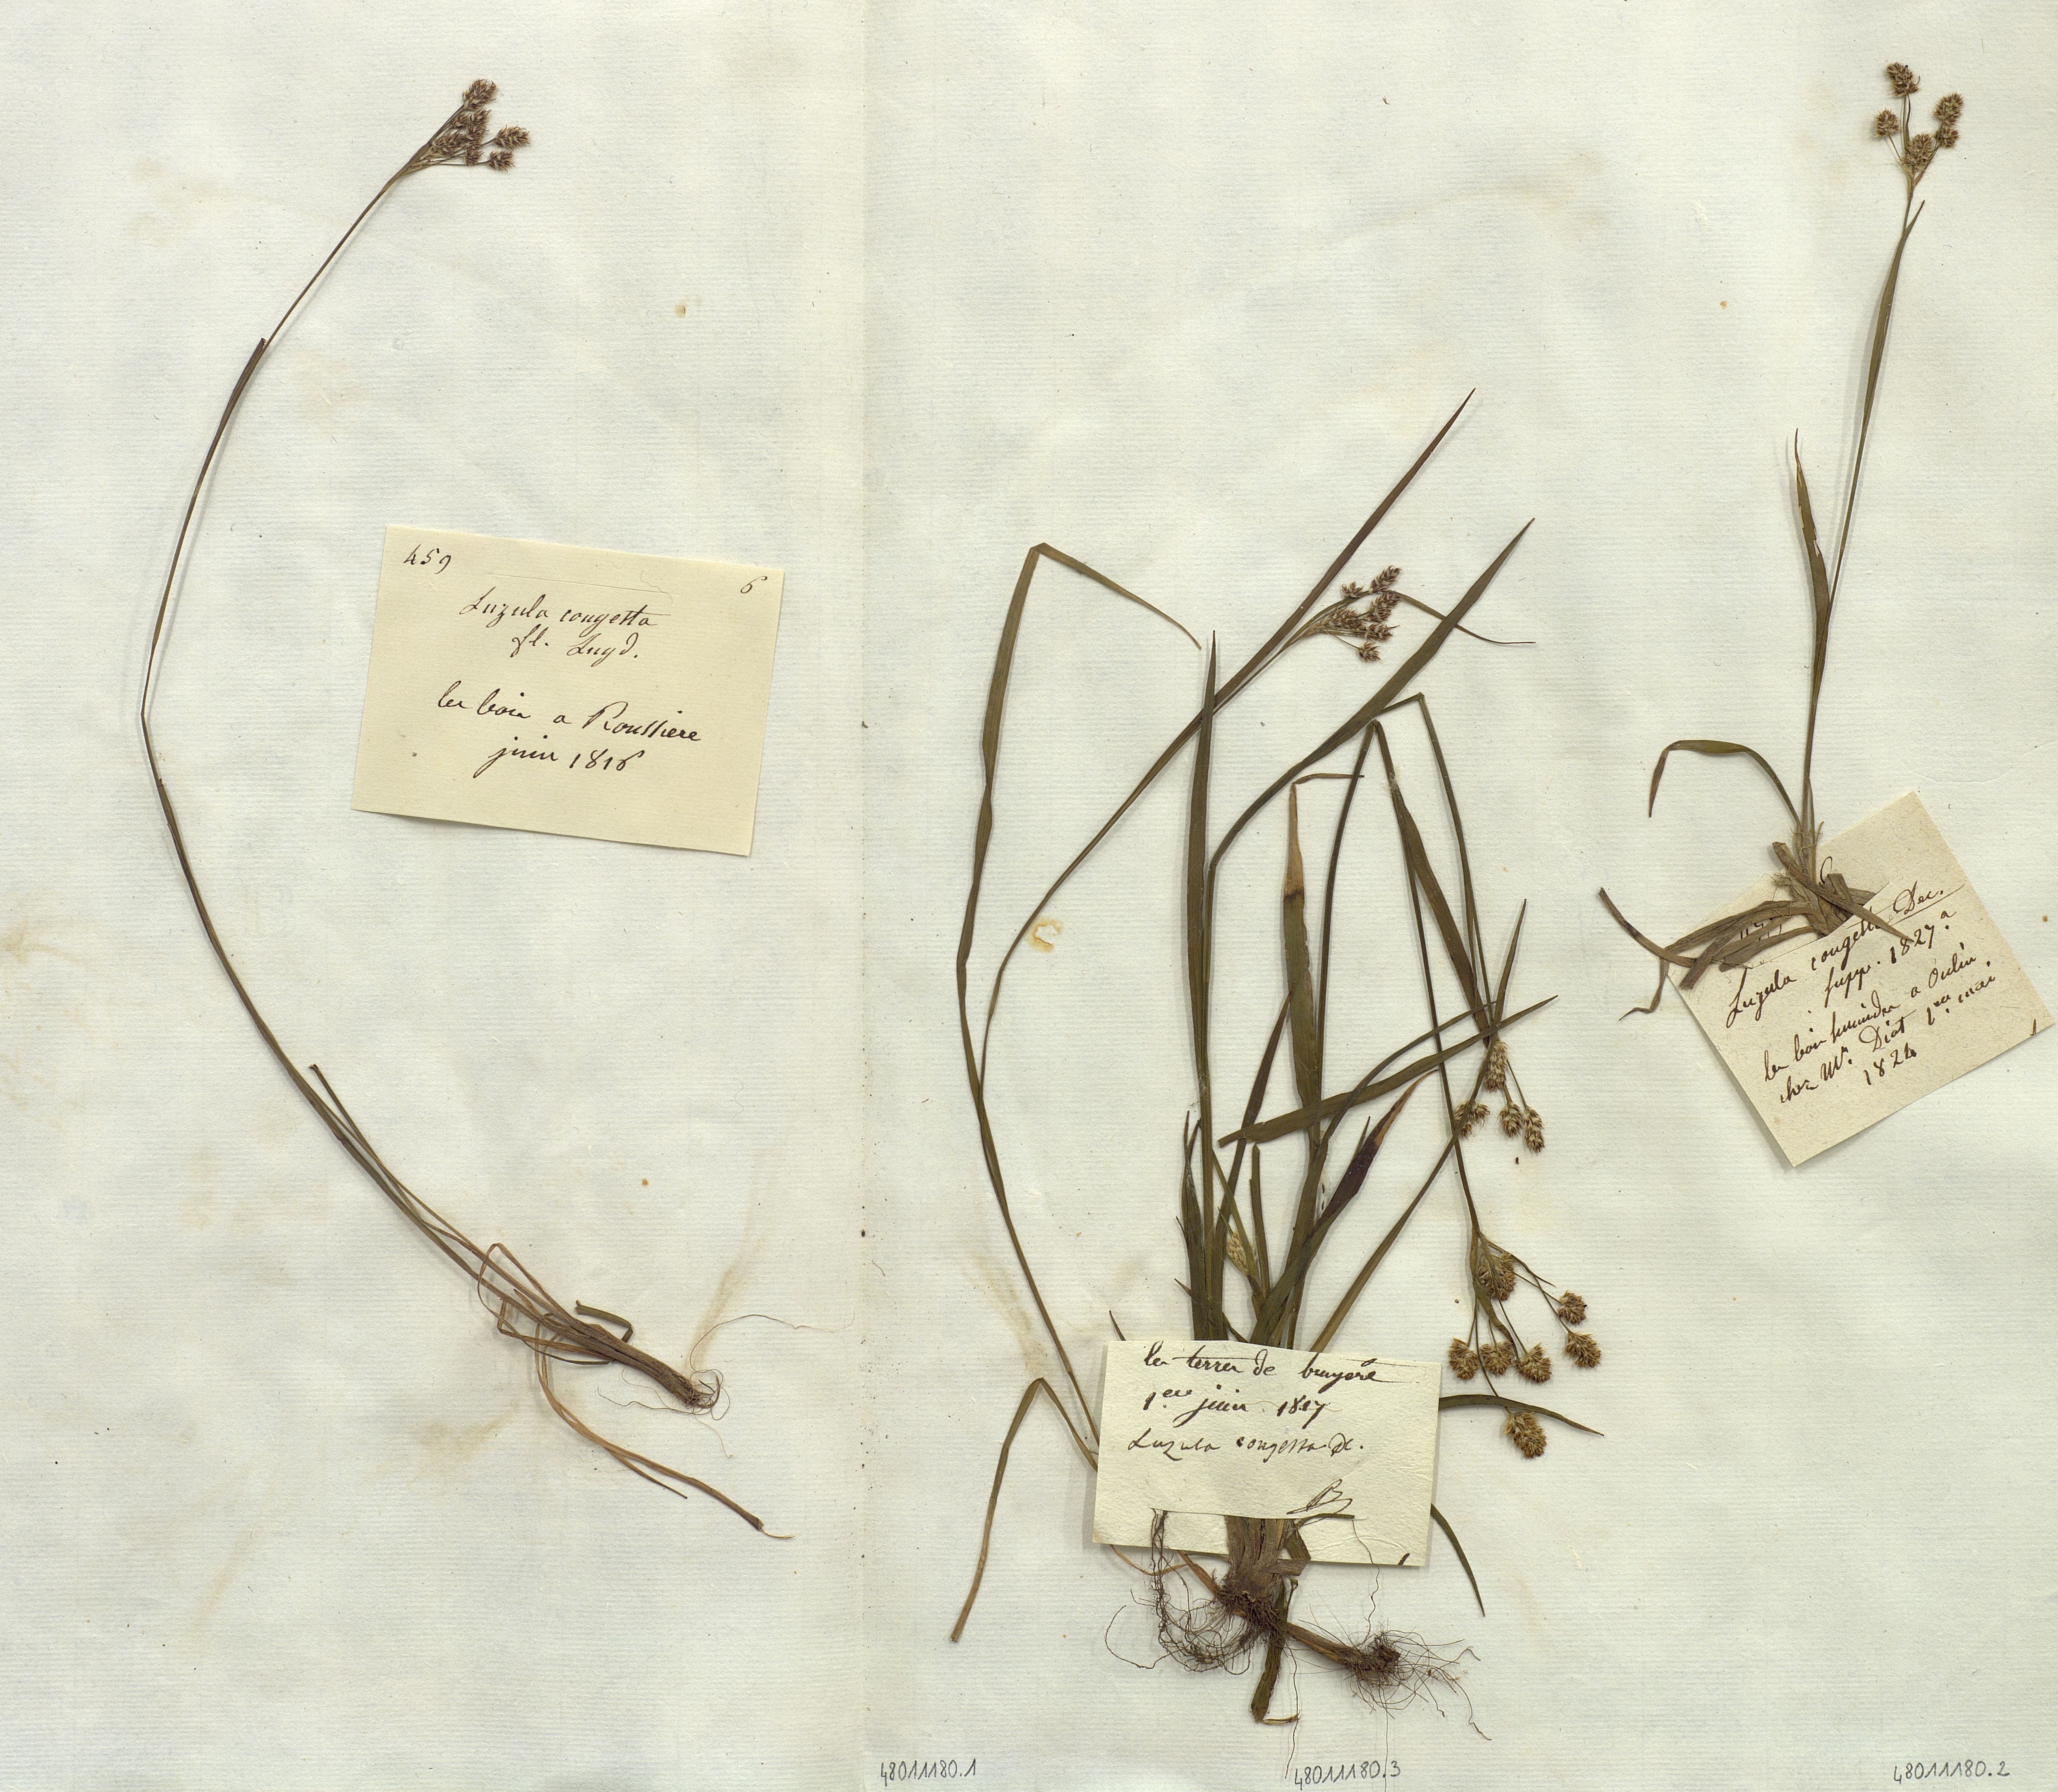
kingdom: Plantae
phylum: Tracheophyta
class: Liliopsida
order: Poales
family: Juncaceae
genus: Luzula
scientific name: Luzula congesta
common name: Heath woodrush
